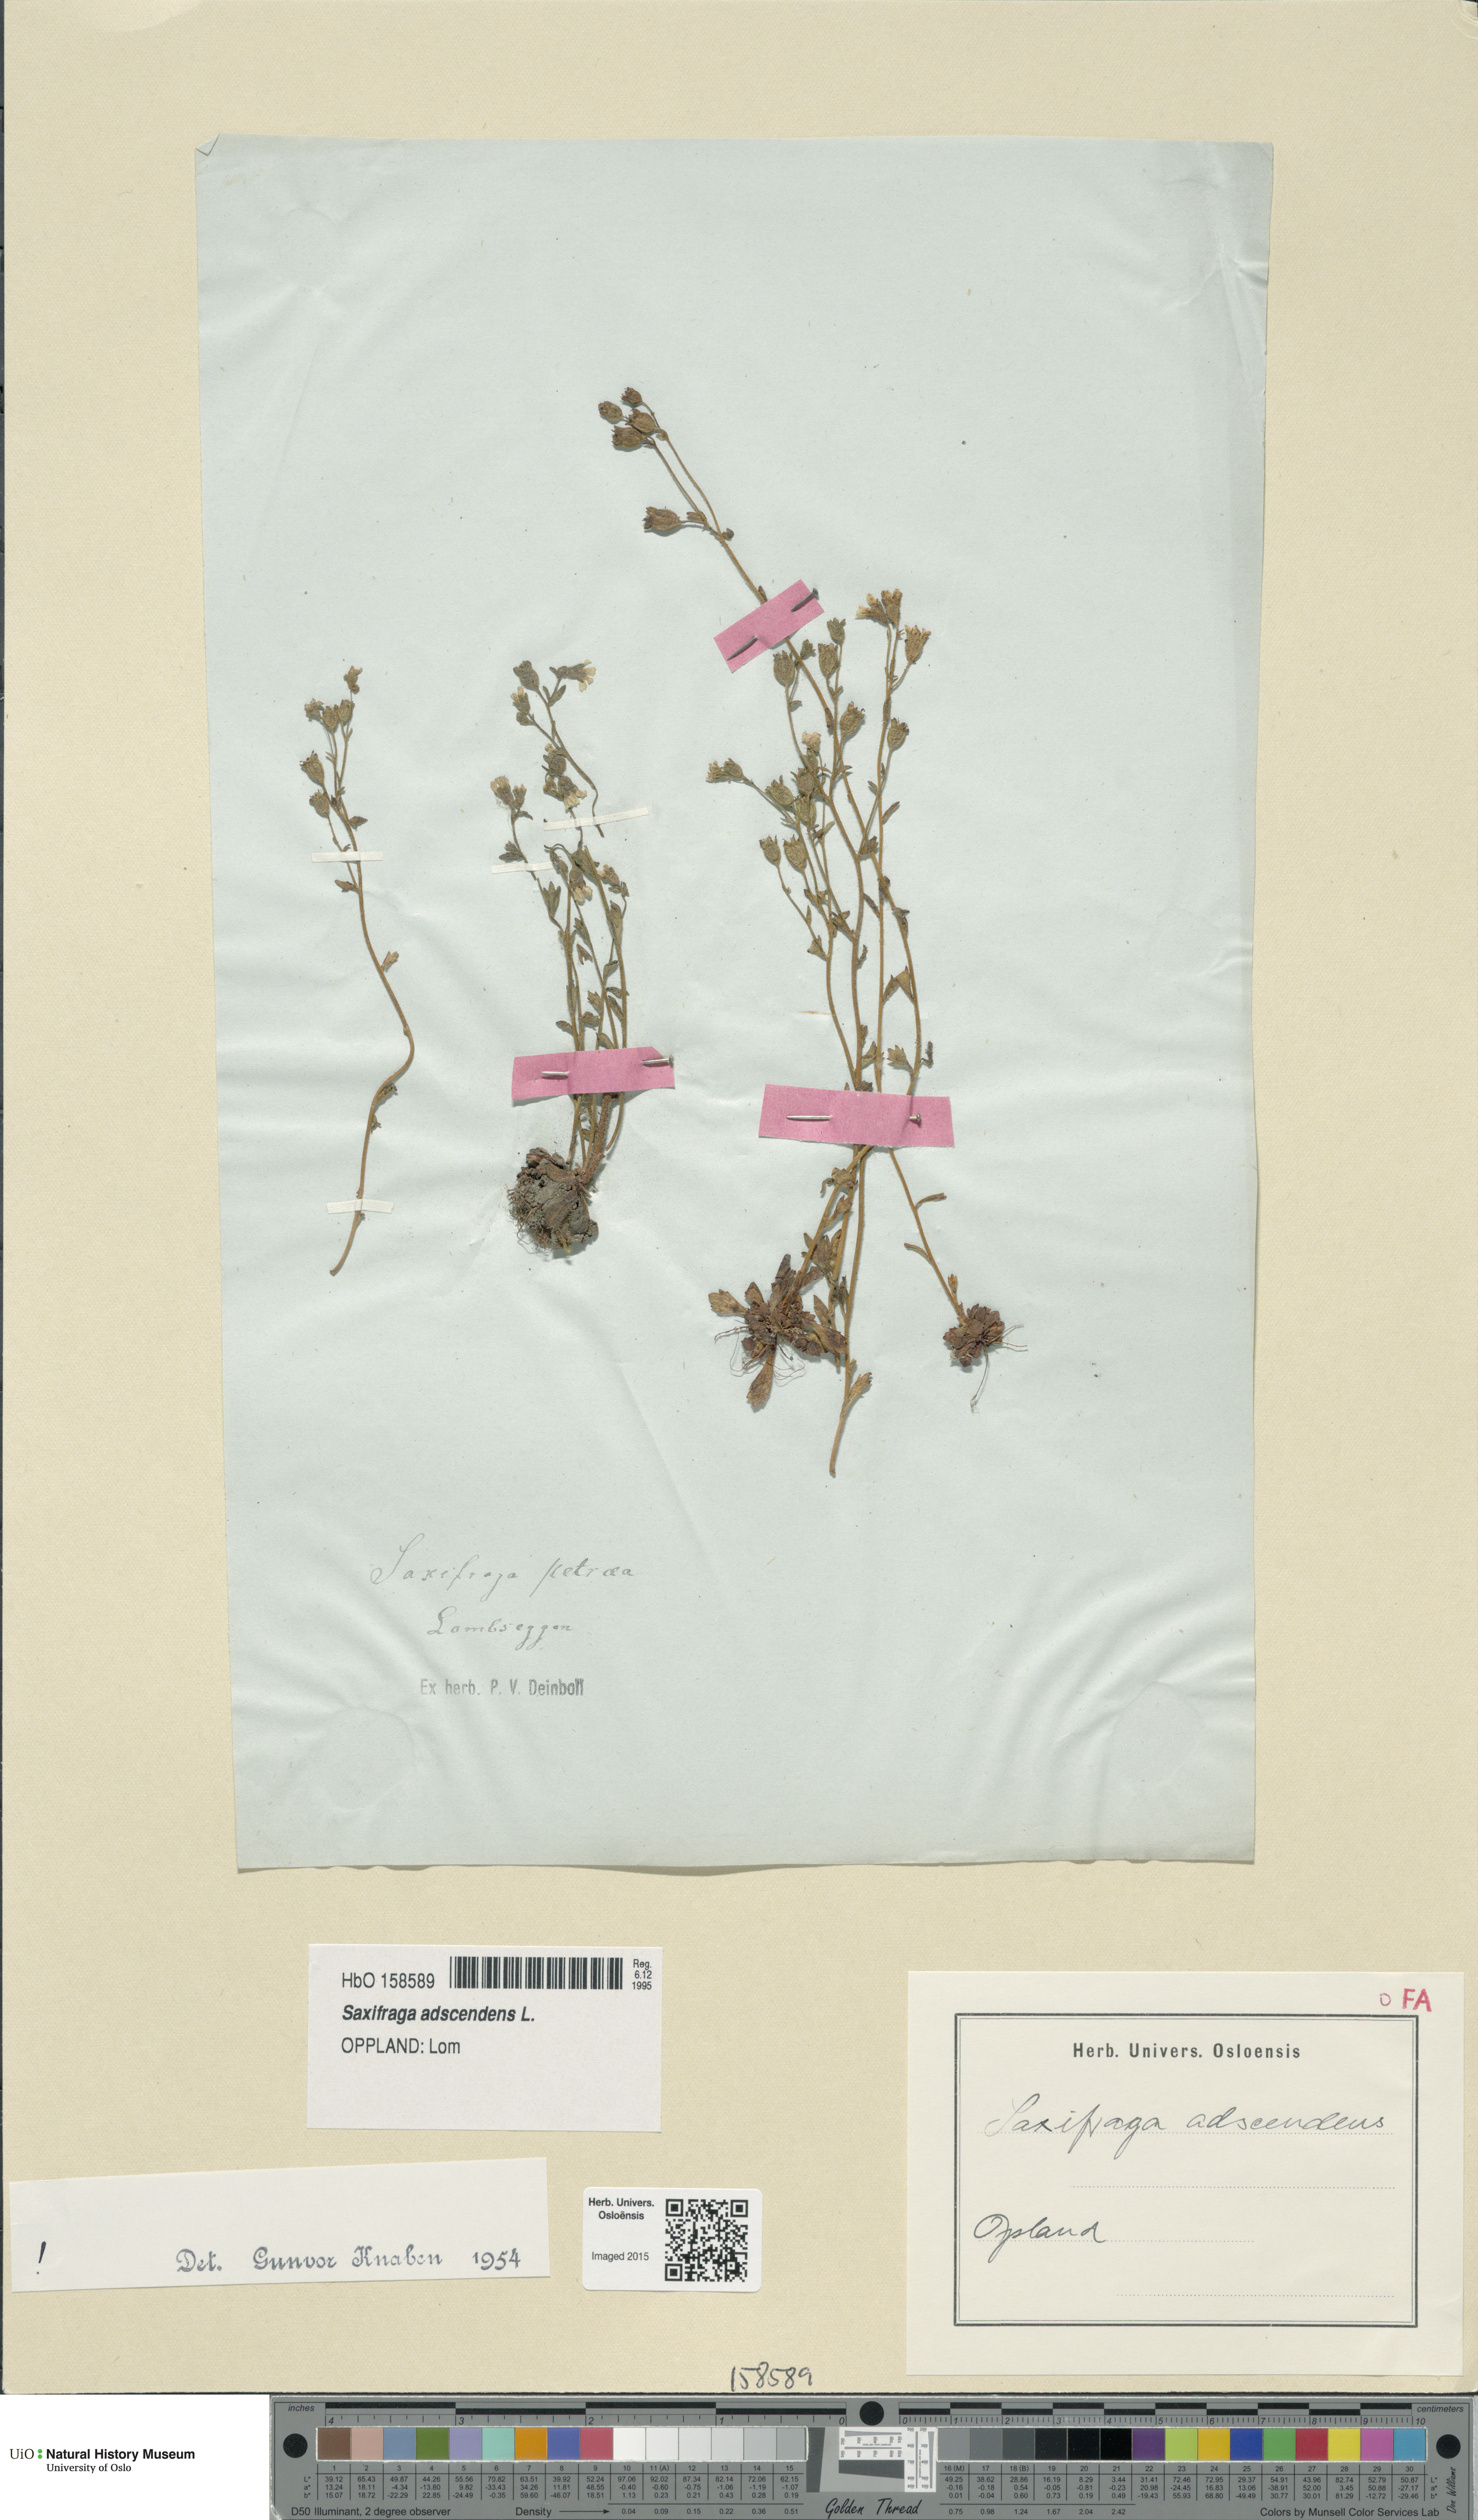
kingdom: Plantae
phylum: Tracheophyta
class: Magnoliopsida
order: Saxifragales
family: Saxifragaceae
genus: Saxifraga
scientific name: Saxifraga adscendens
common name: Ascending saxifrage
